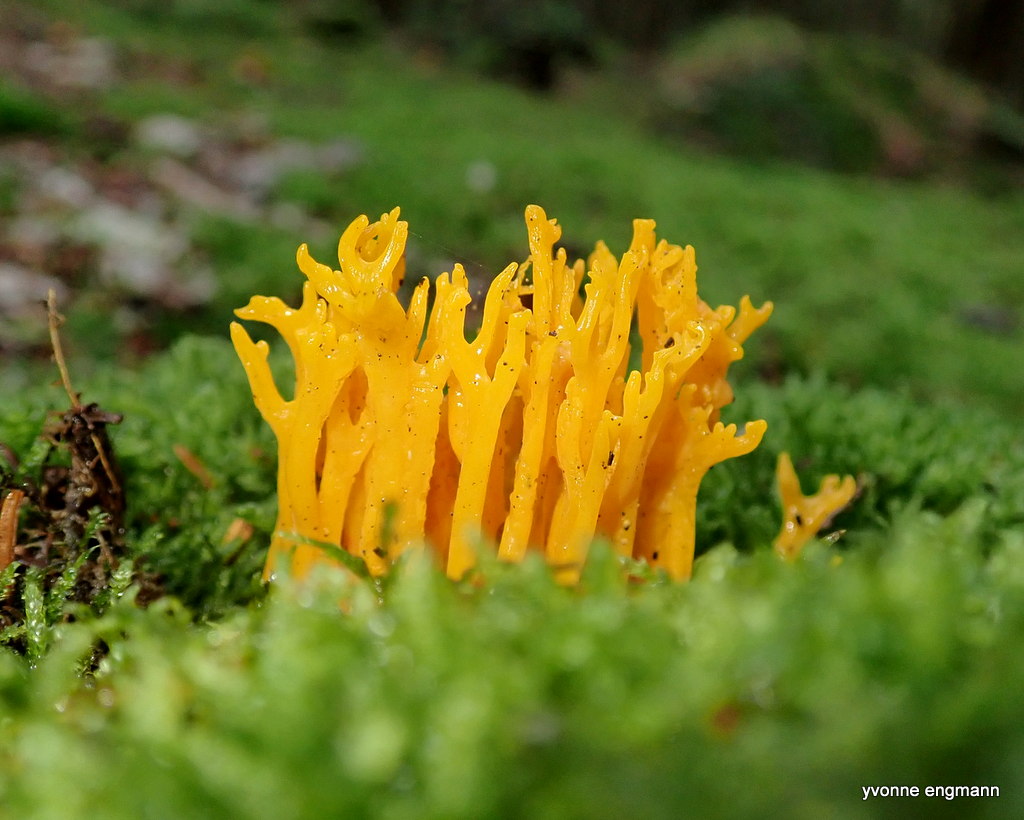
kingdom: Fungi
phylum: Basidiomycota
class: Dacrymycetes
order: Dacrymycetales
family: Dacrymycetaceae
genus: Calocera
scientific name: Calocera viscosa
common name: almindelig guldgaffel
